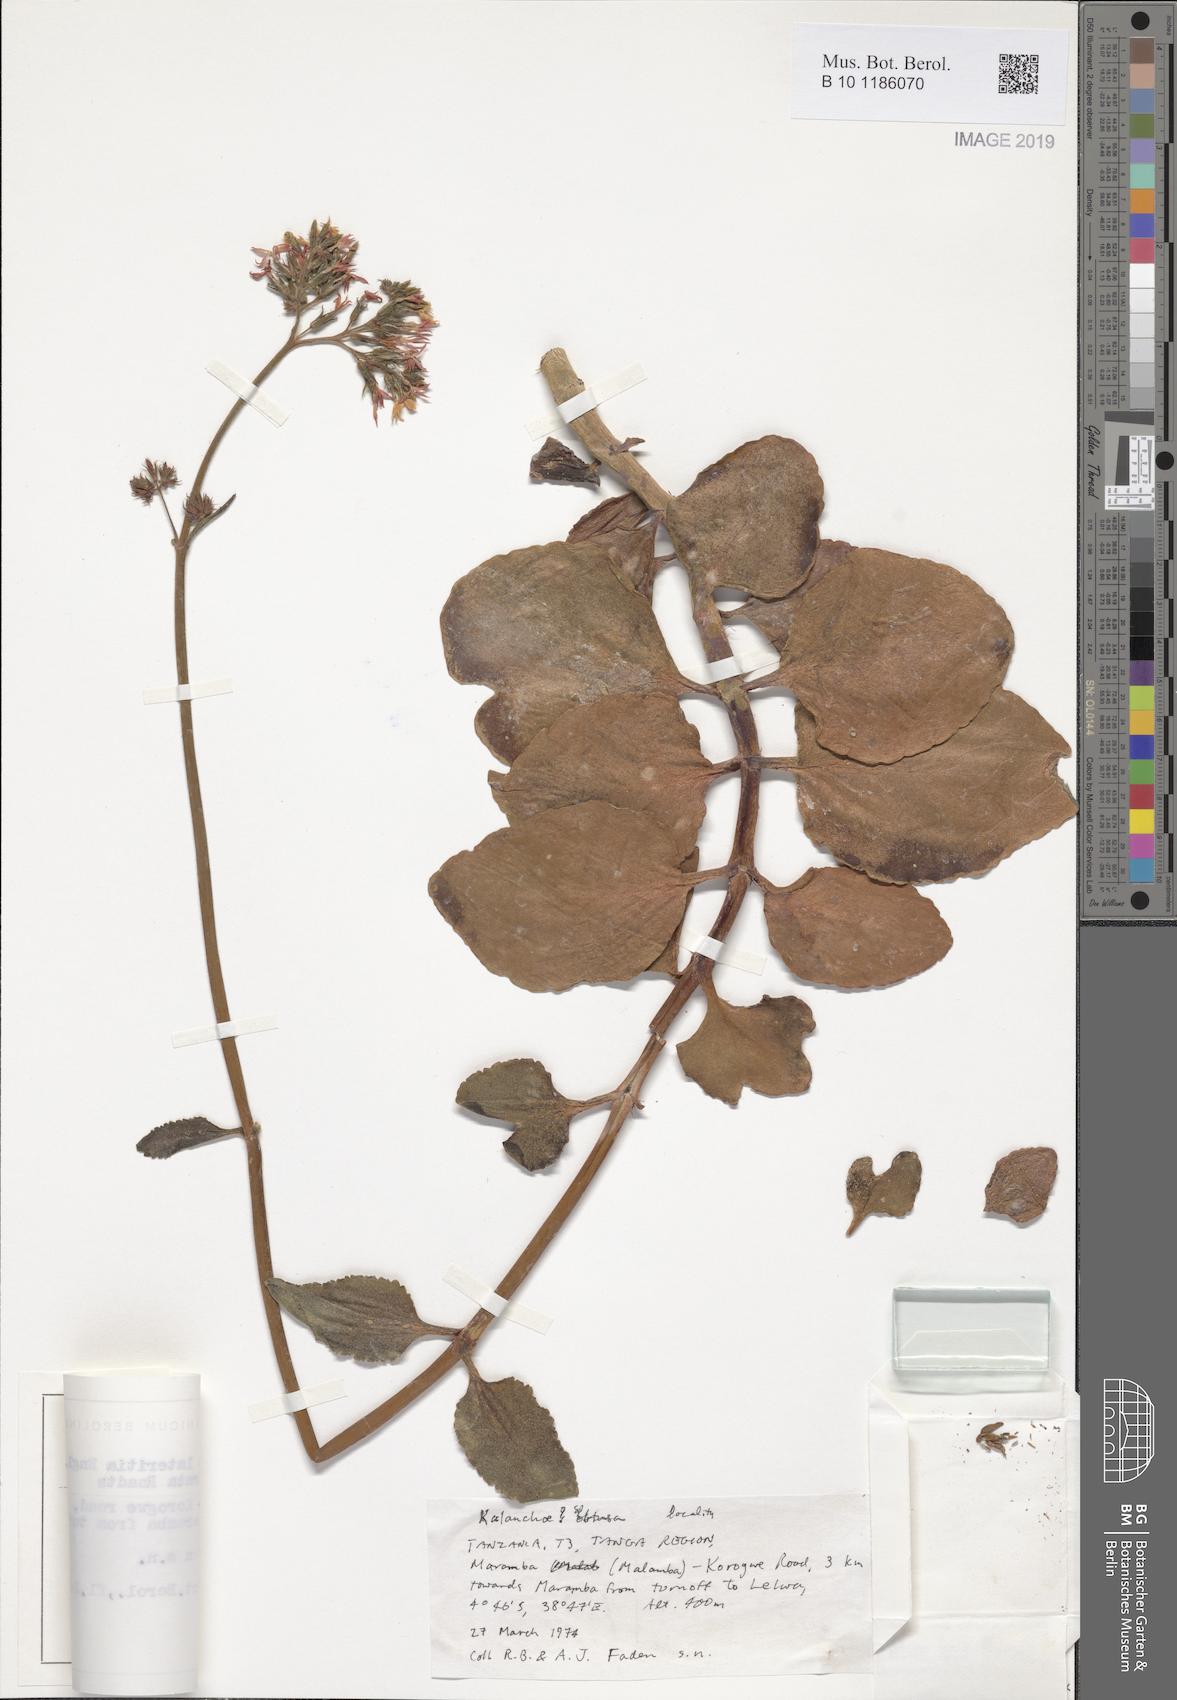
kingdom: Plantae
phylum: Tracheophyta
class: Magnoliopsida
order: Saxifragales
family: Crassulaceae
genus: Kalanchoe
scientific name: Kalanchoe lateritia
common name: Kalanchoe
